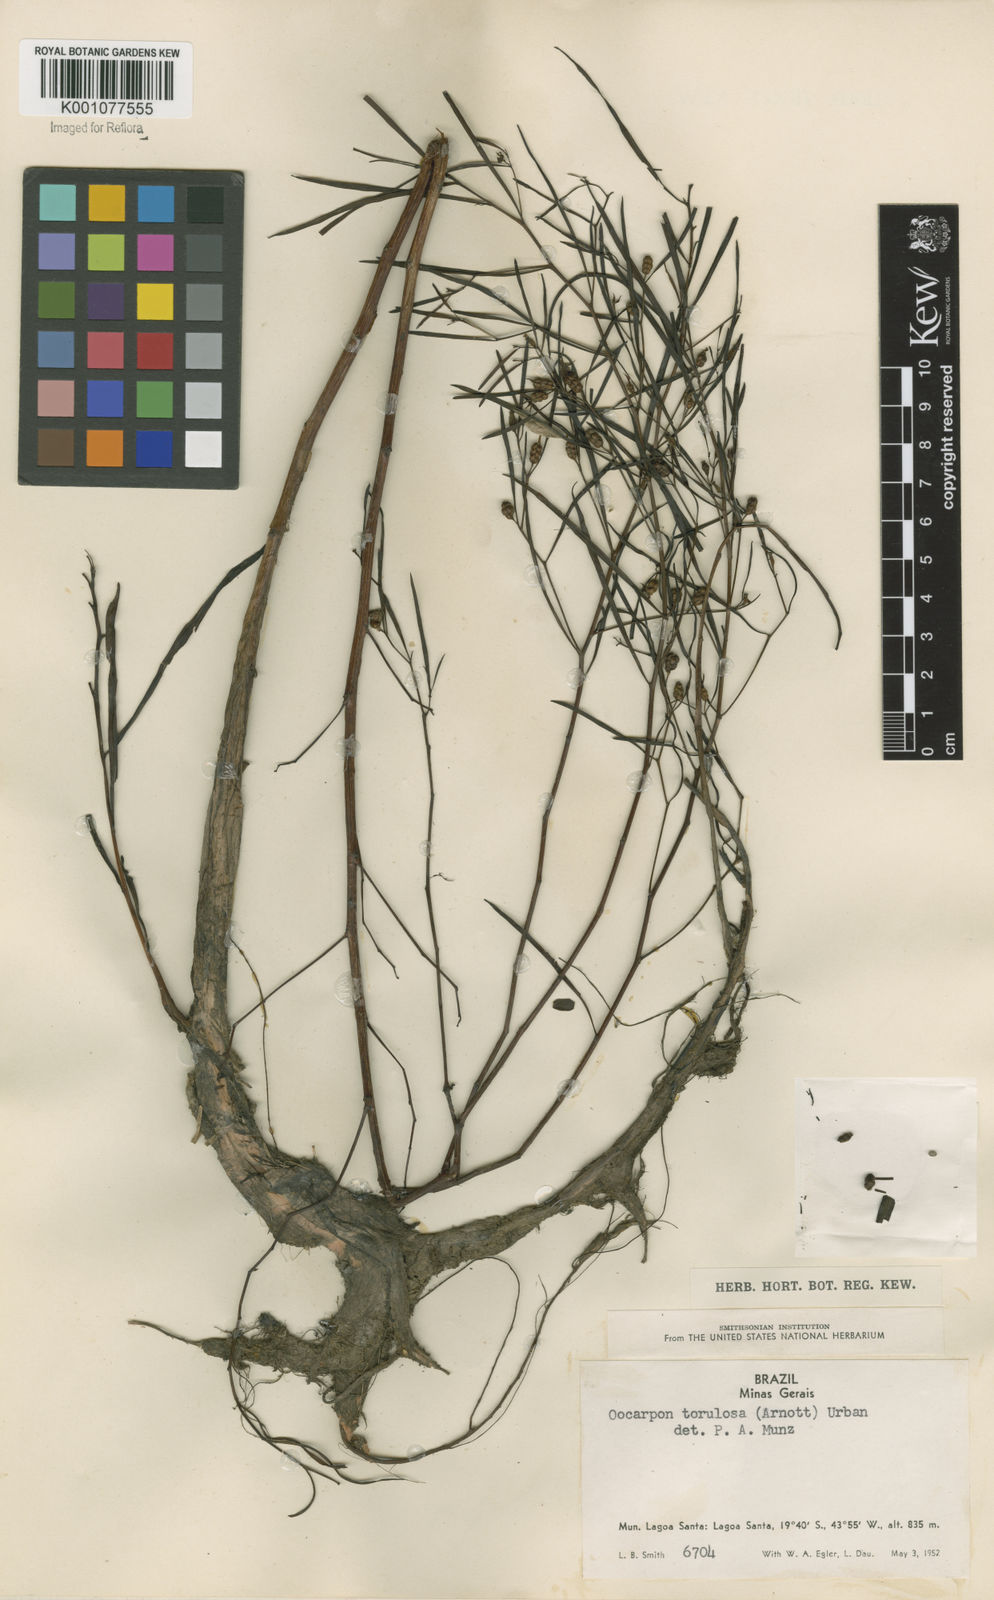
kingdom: Plantae
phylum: Tracheophyta
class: Magnoliopsida
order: Myrtales
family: Onagraceae
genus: Ludwigia
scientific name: Ludwigia torulosa
